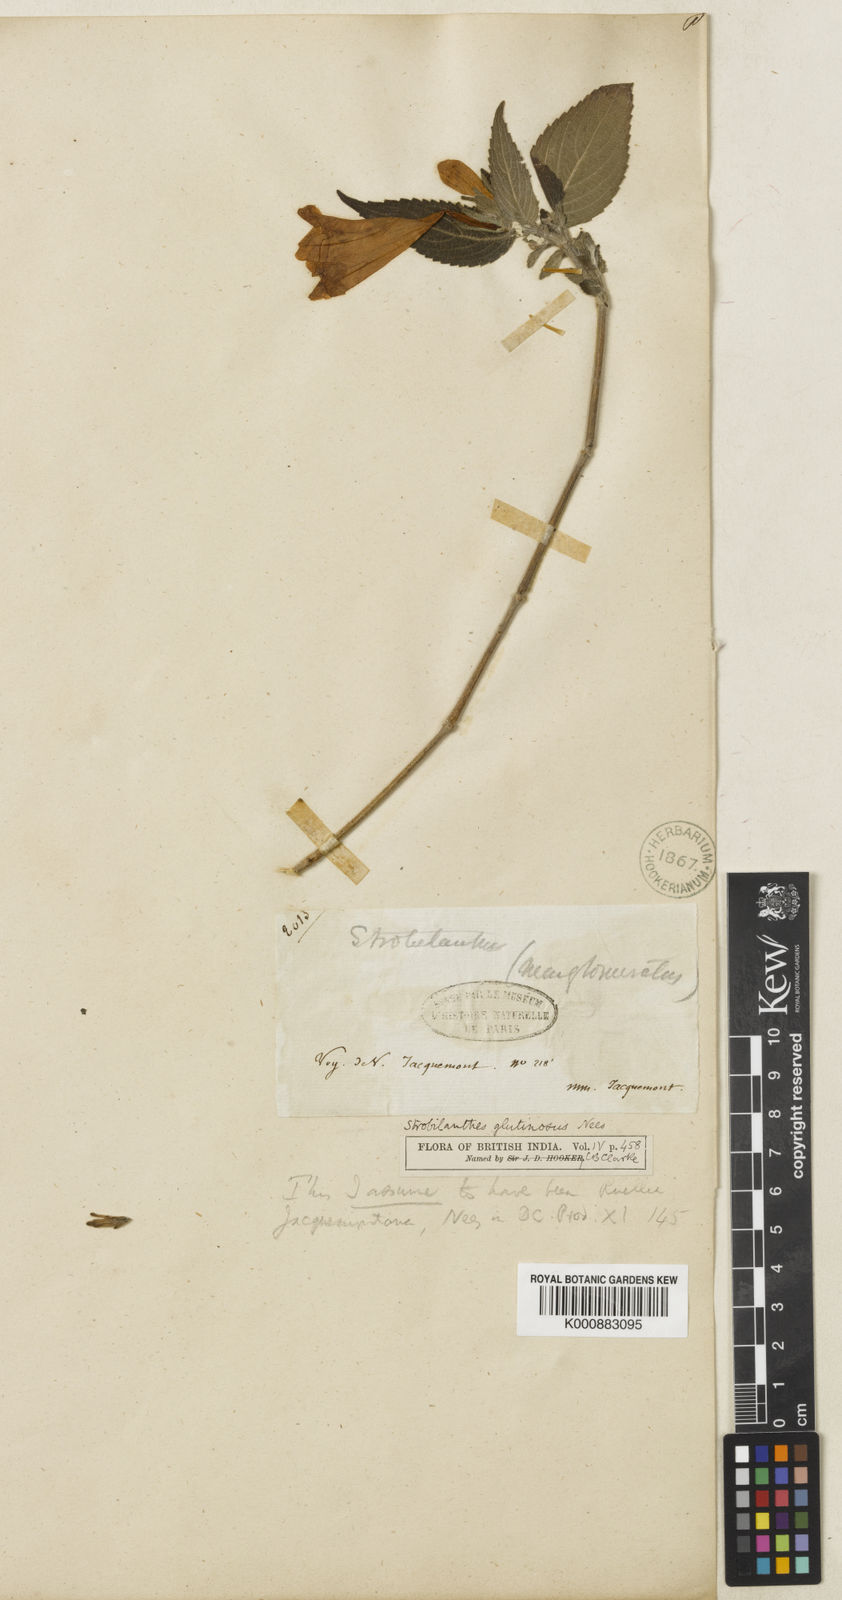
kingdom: Plantae
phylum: Tracheophyta
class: Magnoliopsida
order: Lamiales
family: Acanthaceae
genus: Strobilanthes
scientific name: Strobilanthes glutinosa
